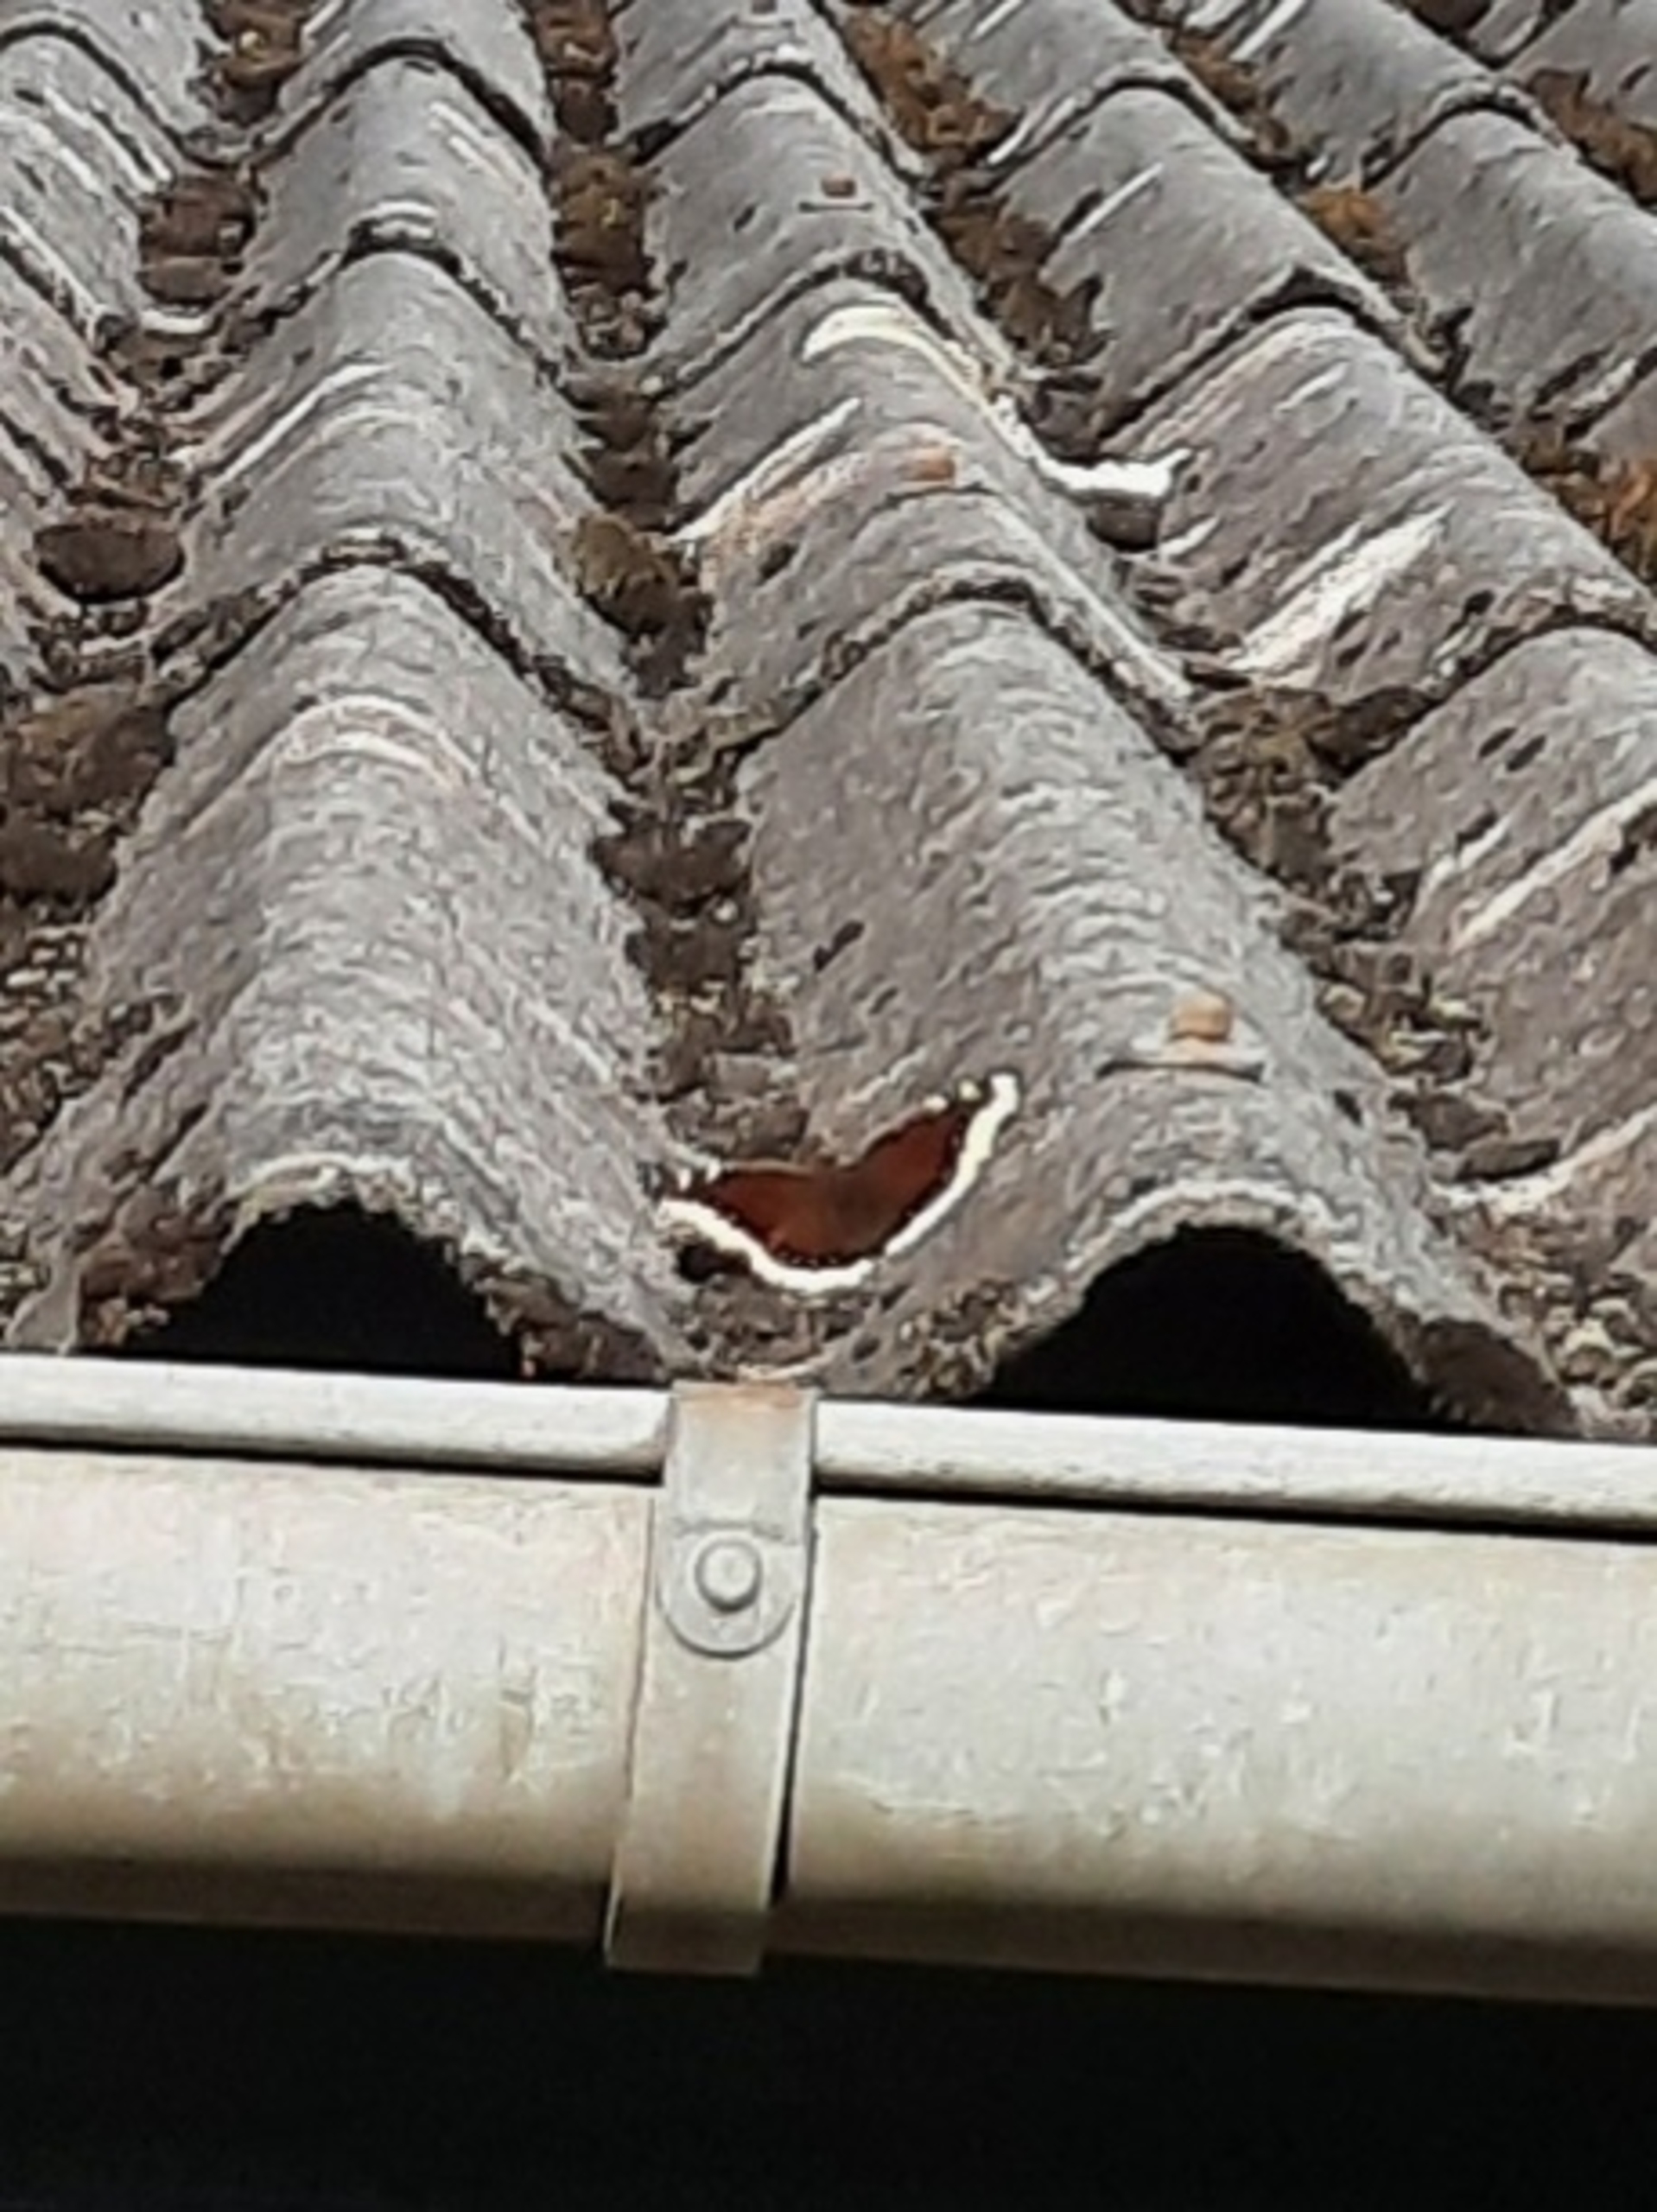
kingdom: Animalia
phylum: Arthropoda
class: Insecta
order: Lepidoptera
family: Nymphalidae
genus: Nymphalis
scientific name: Nymphalis antiopa
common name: Sørgekåbe
